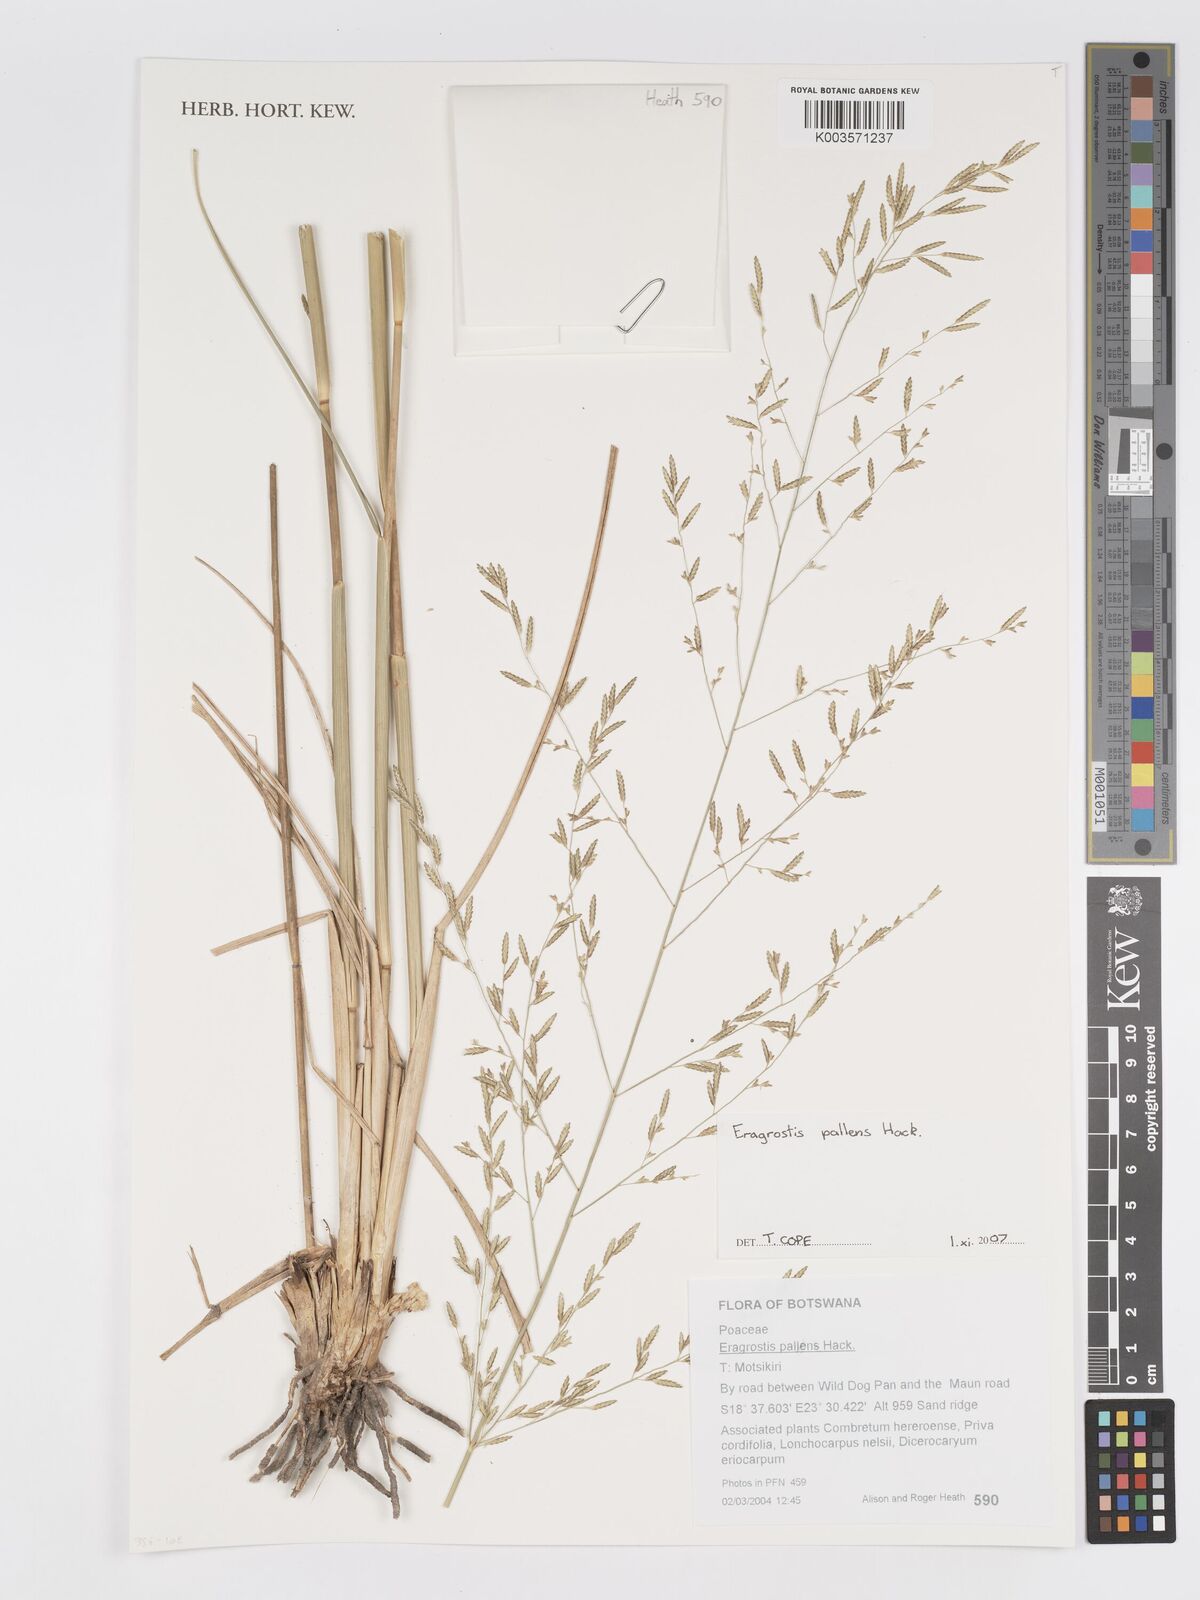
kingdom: Plantae
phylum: Tracheophyta
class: Liliopsida
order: Poales
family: Poaceae
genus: Eragrostis
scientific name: Eragrostis pallens
